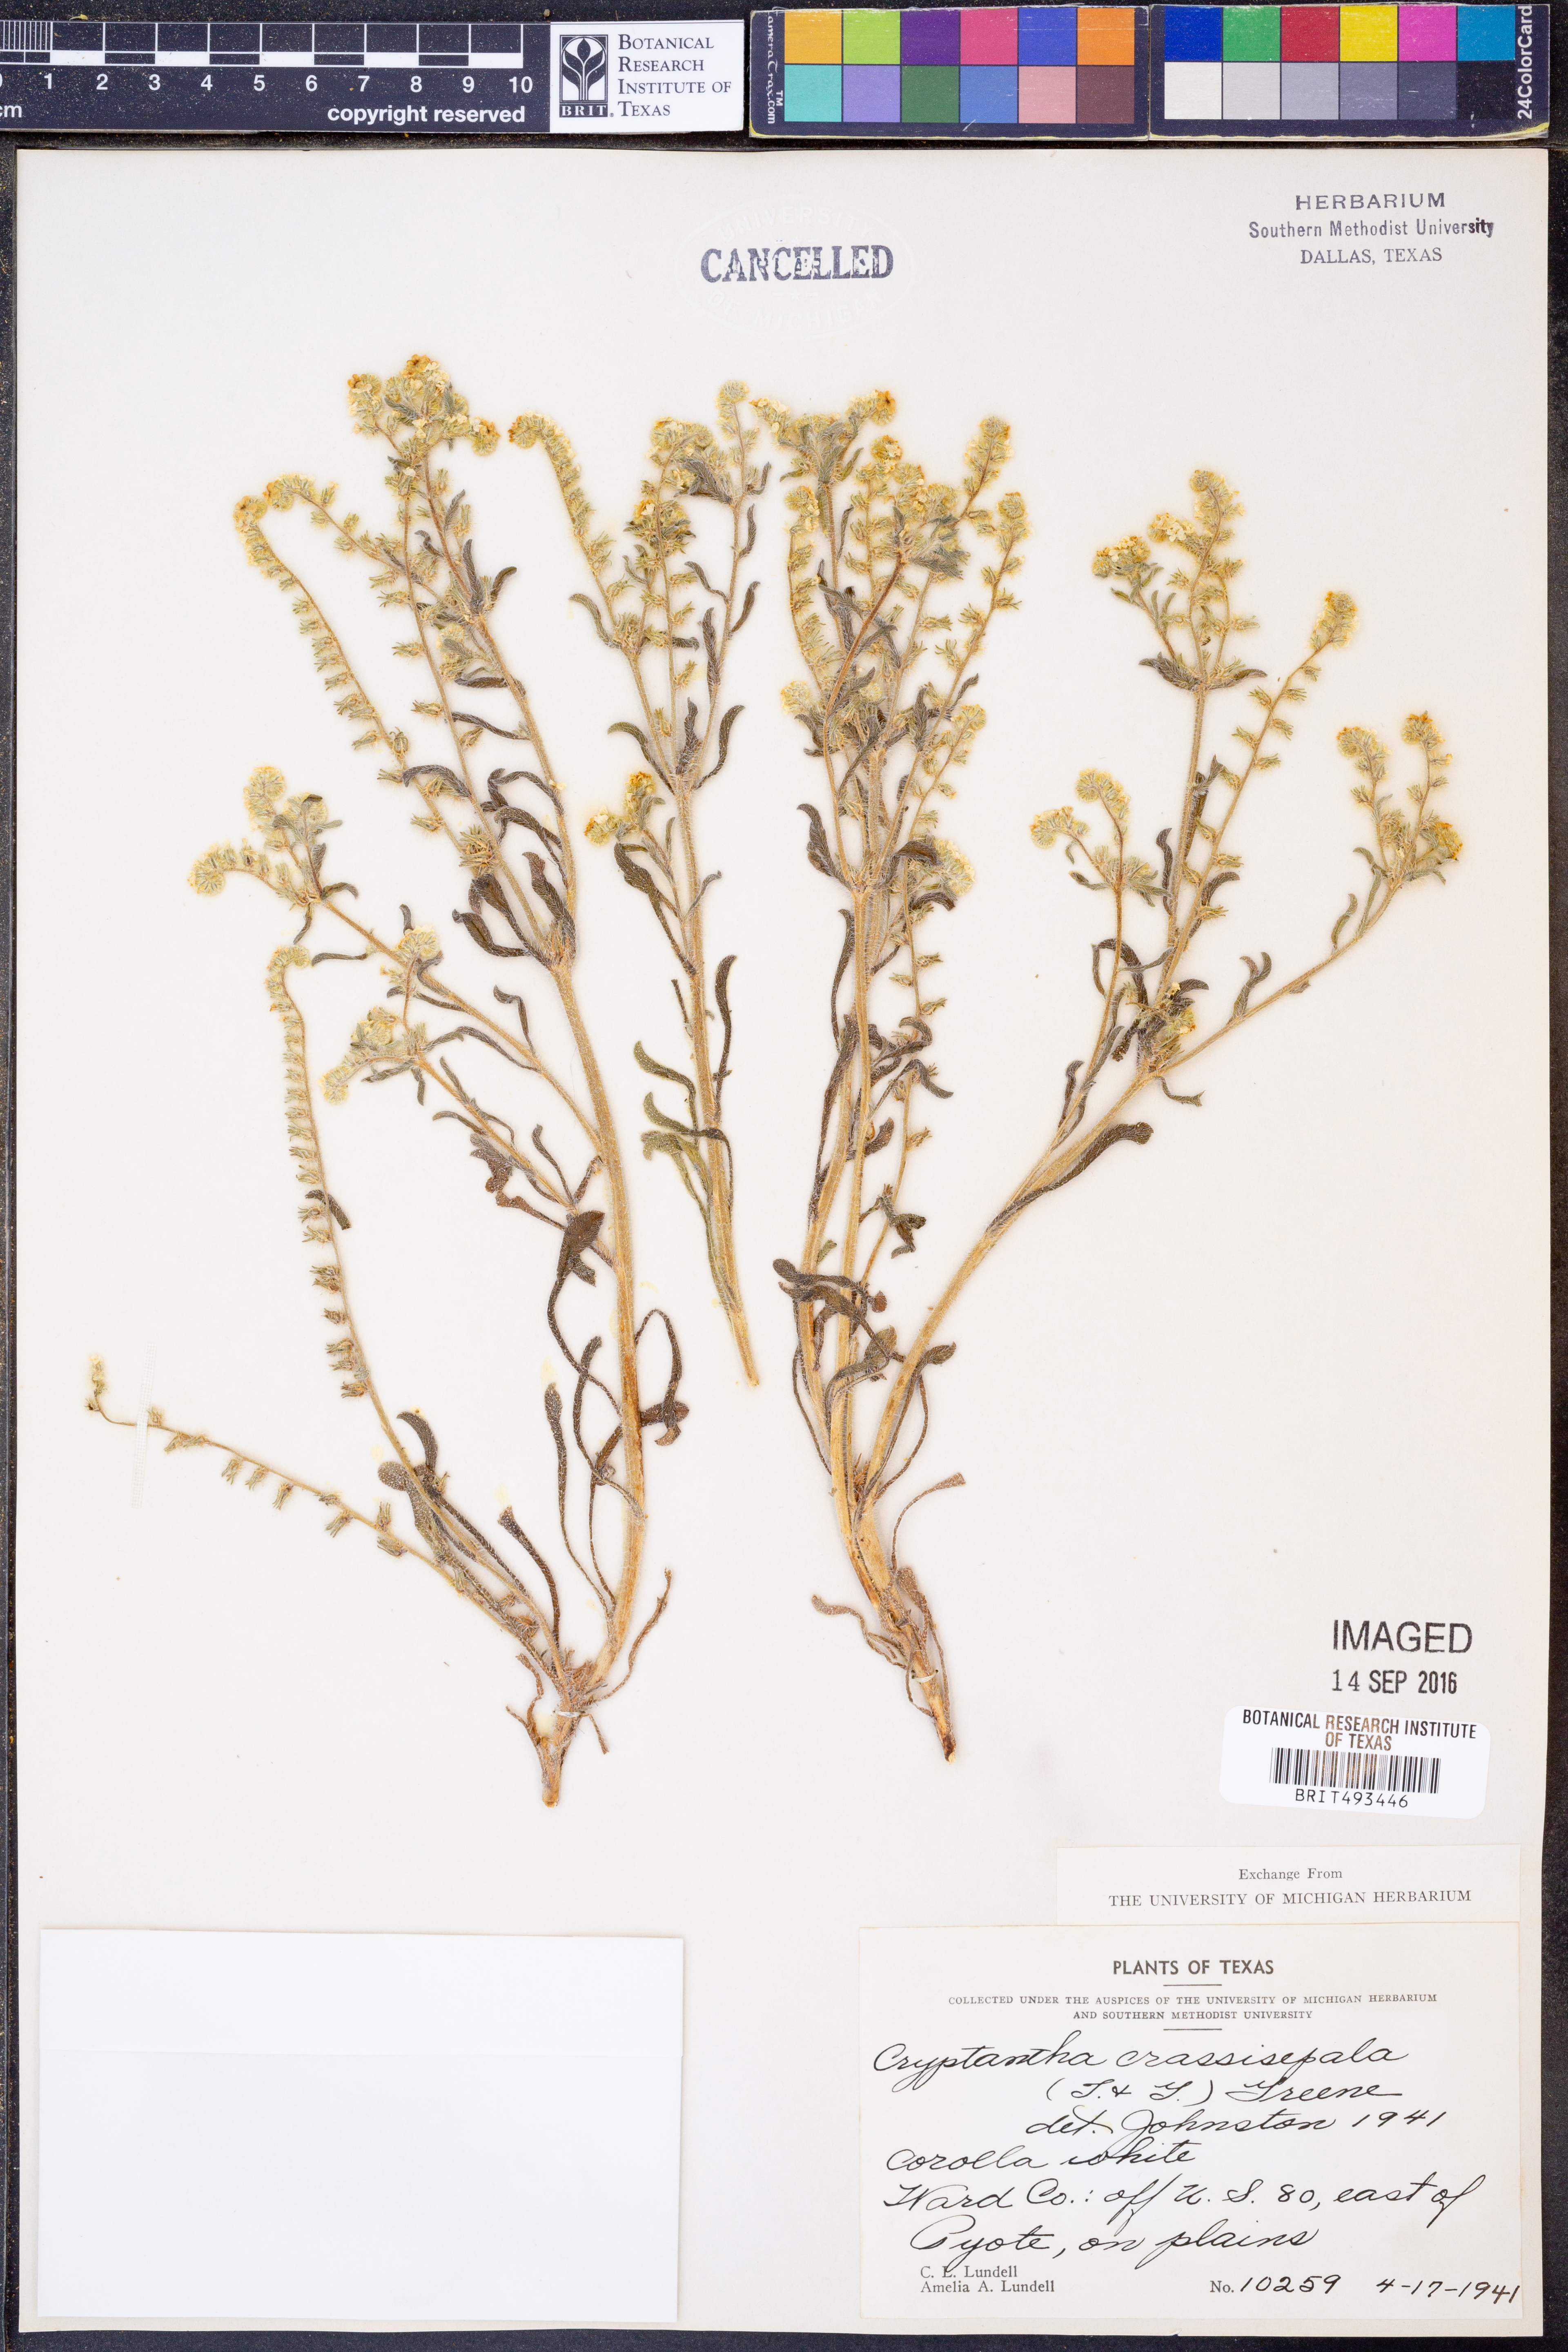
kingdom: Plantae
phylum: Tracheophyta
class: Magnoliopsida
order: Boraginales
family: Boraginaceae
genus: Cryptantha
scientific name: Cryptantha crassisepala
